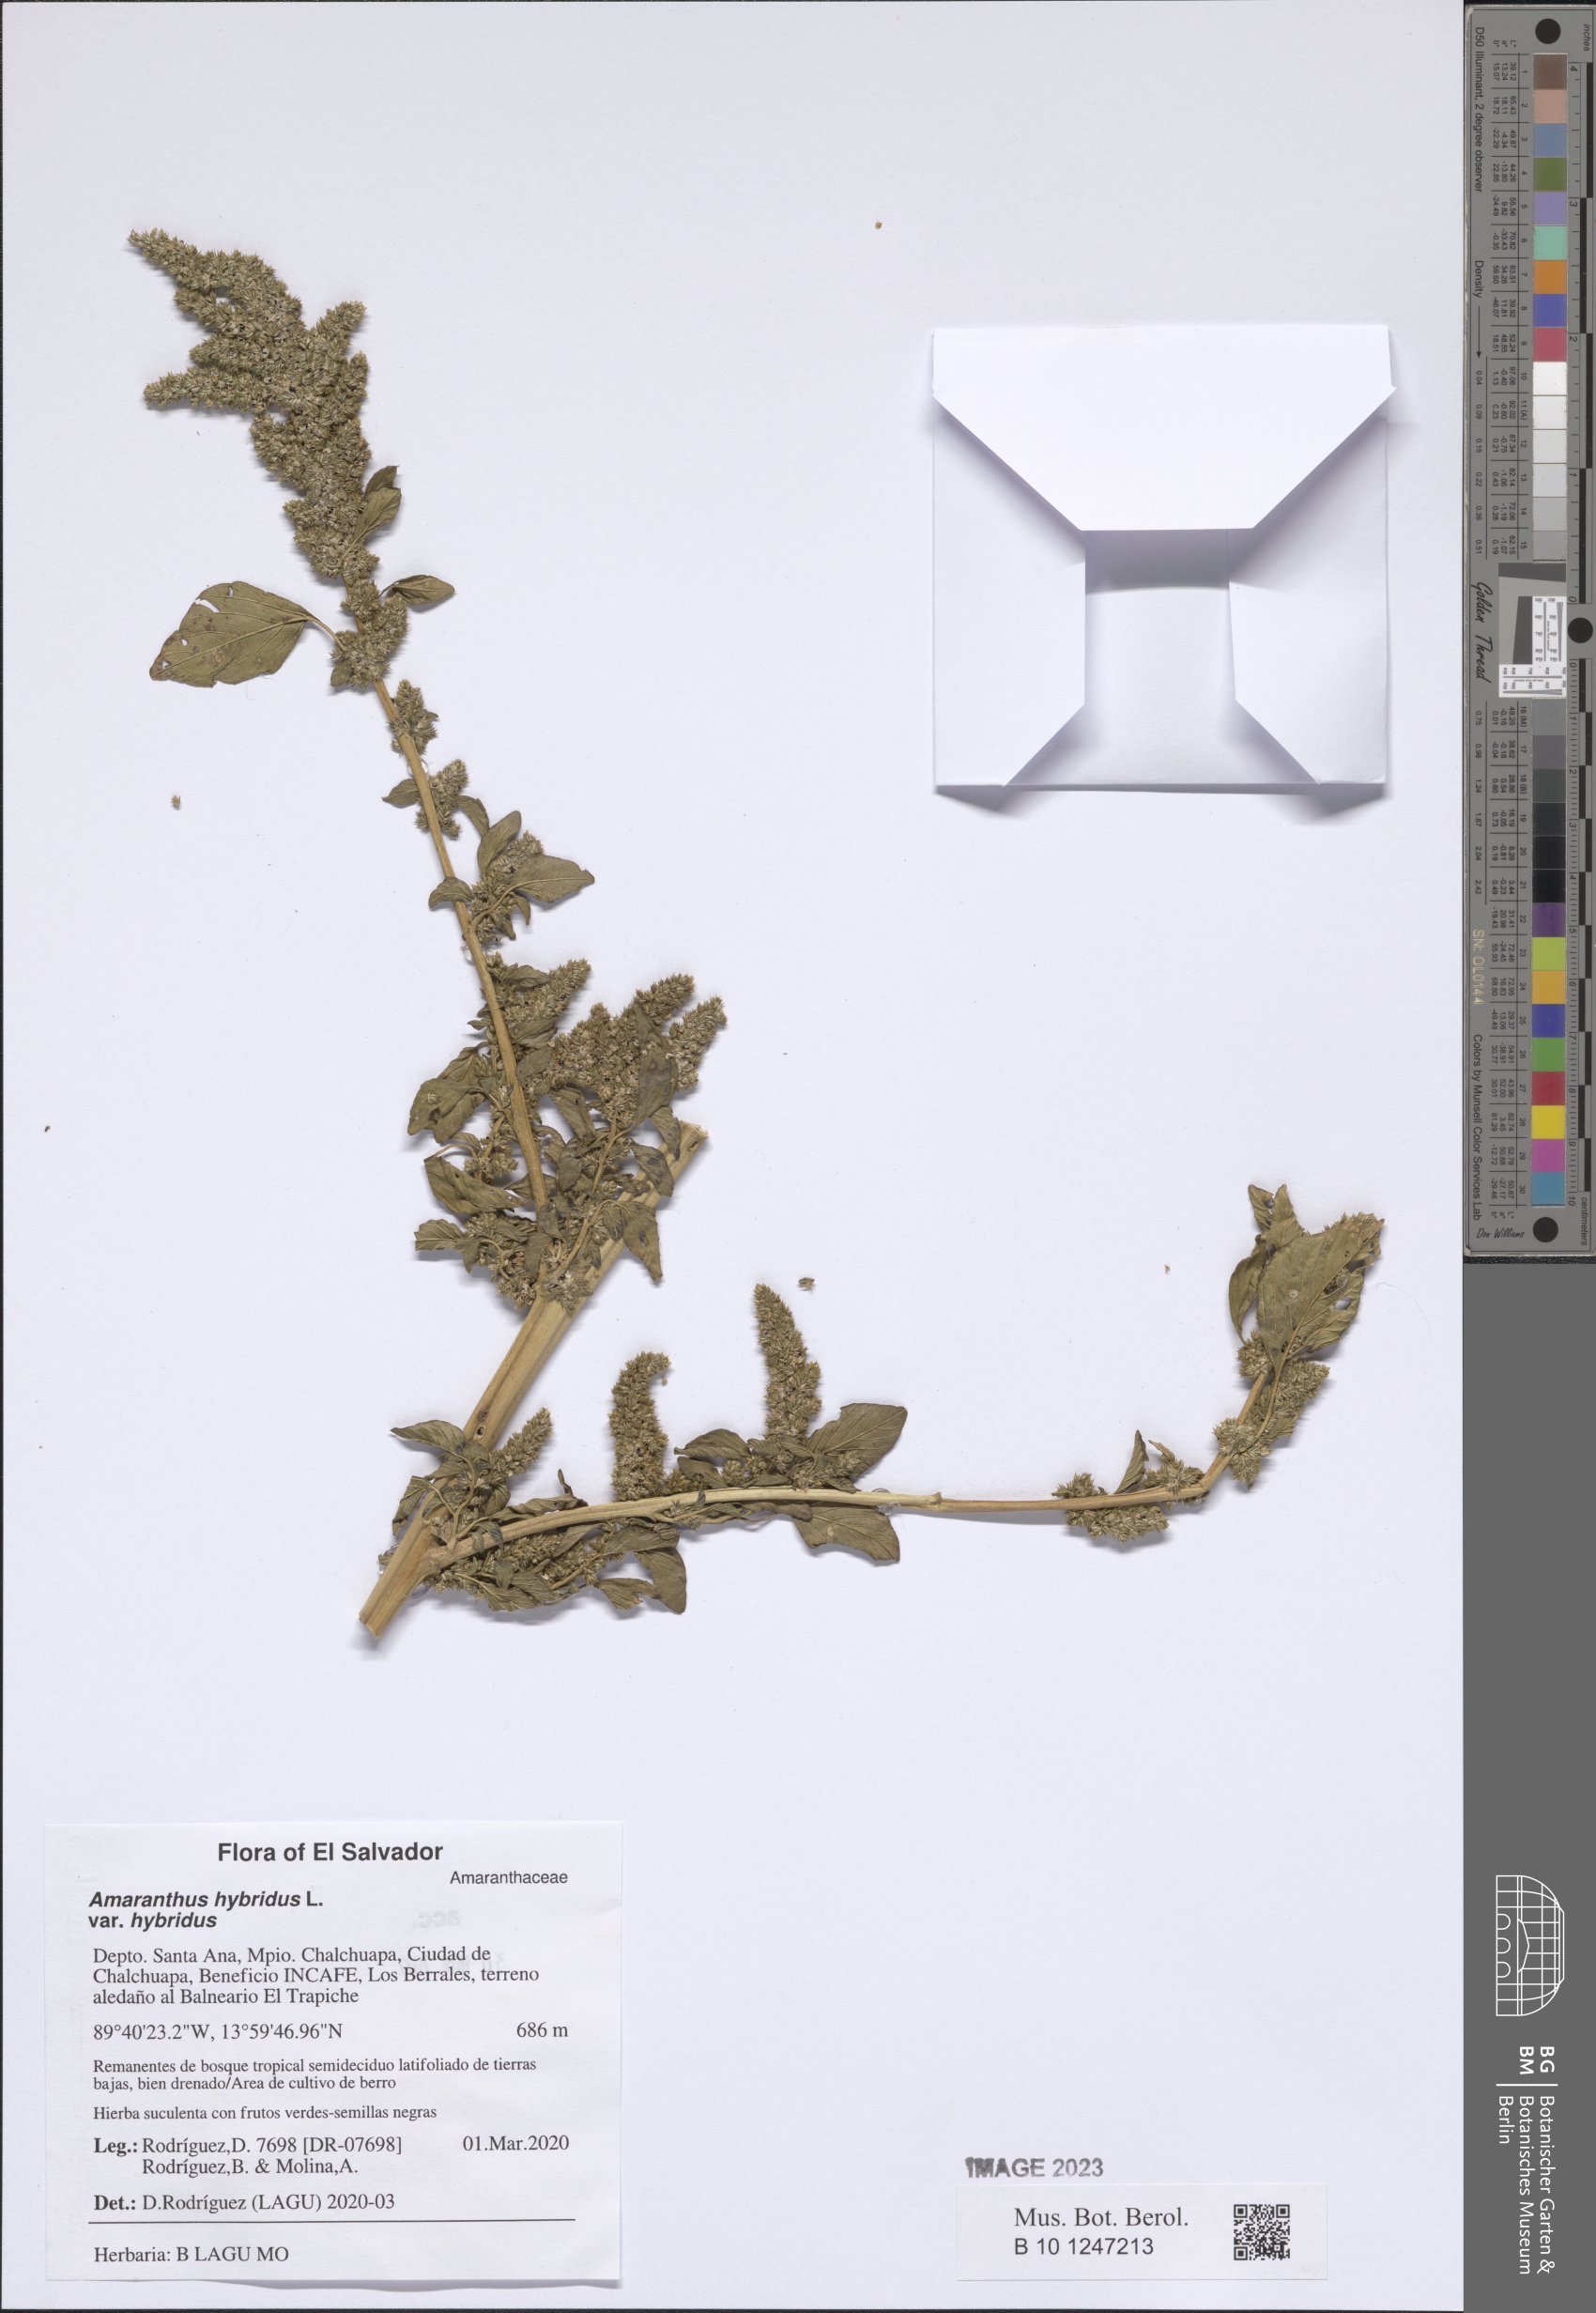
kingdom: Plantae
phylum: Tracheophyta
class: Magnoliopsida
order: Caryophyllales
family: Amaranthaceae
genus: Amaranthus
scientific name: Amaranthus hybridus
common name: Green amaranth
